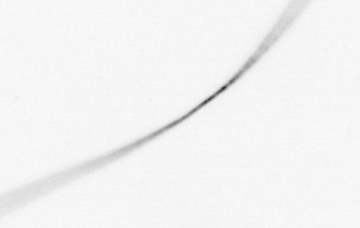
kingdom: Chromista
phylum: Ochrophyta
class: Bacillariophyceae
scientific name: Bacillariophyceae
